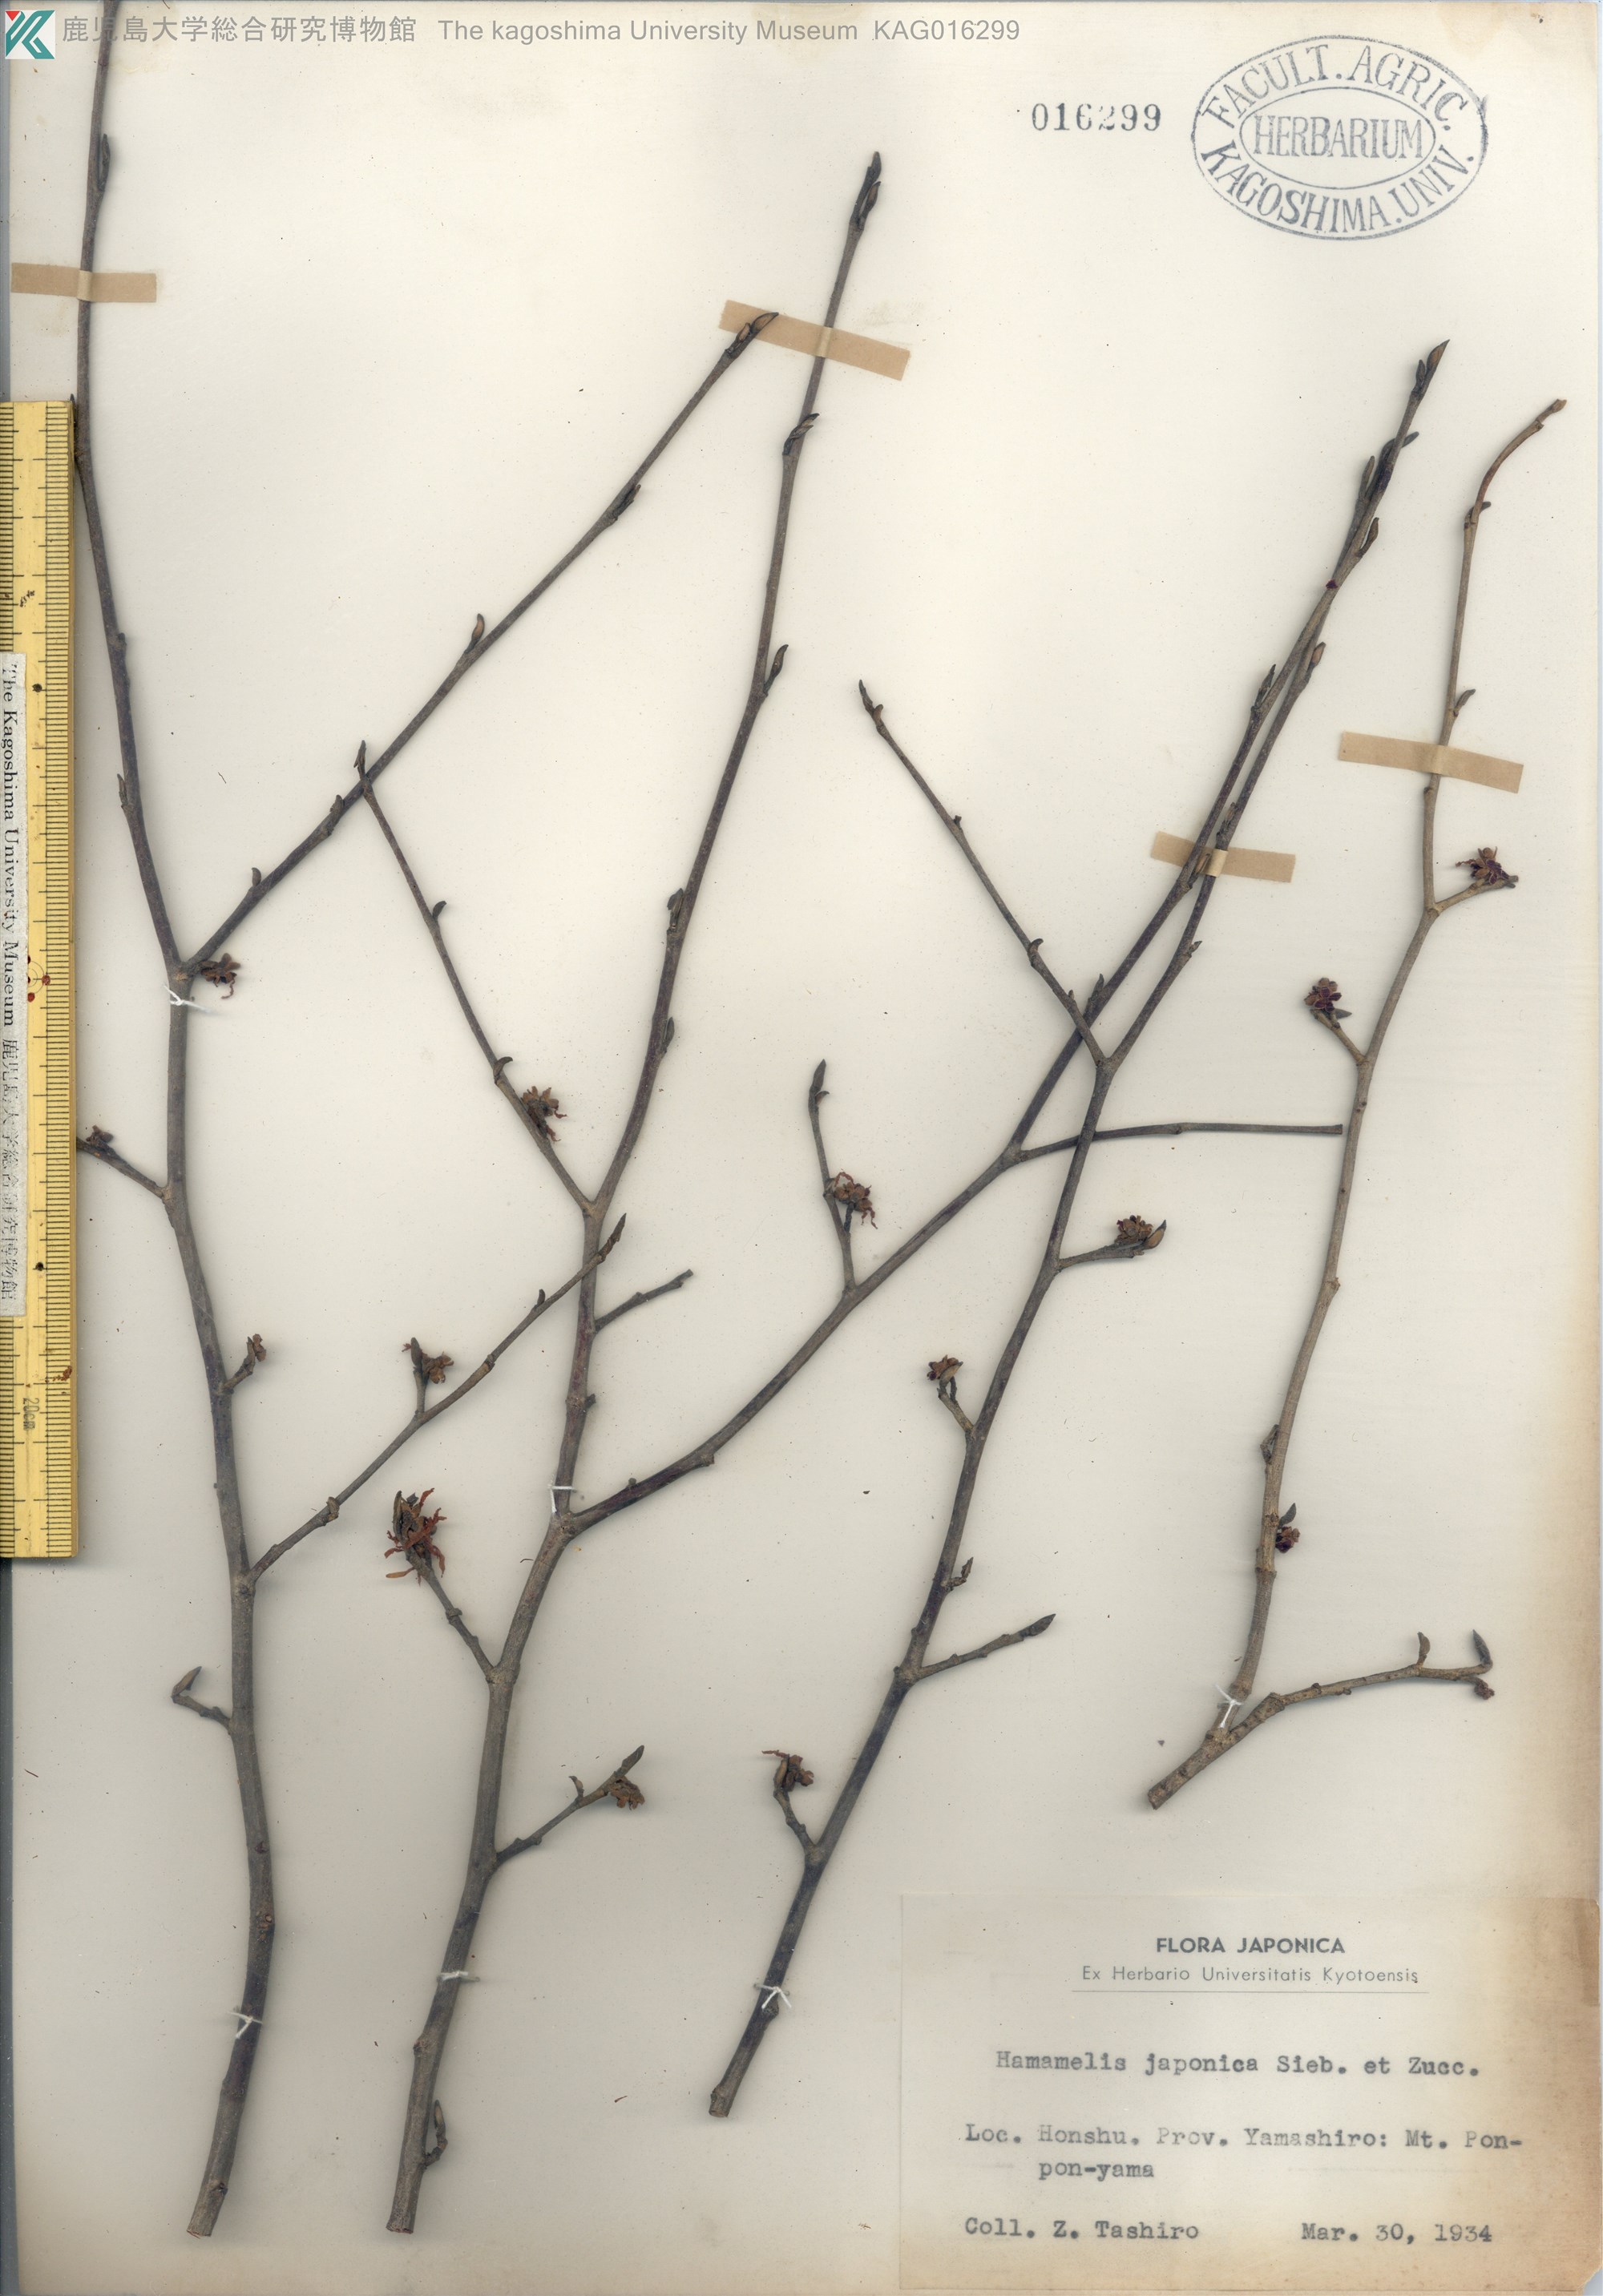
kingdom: Plantae
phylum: Tracheophyta
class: Magnoliopsida
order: Saxifragales
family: Hamamelidaceae
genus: Hamamelis
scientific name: Hamamelis japonica
